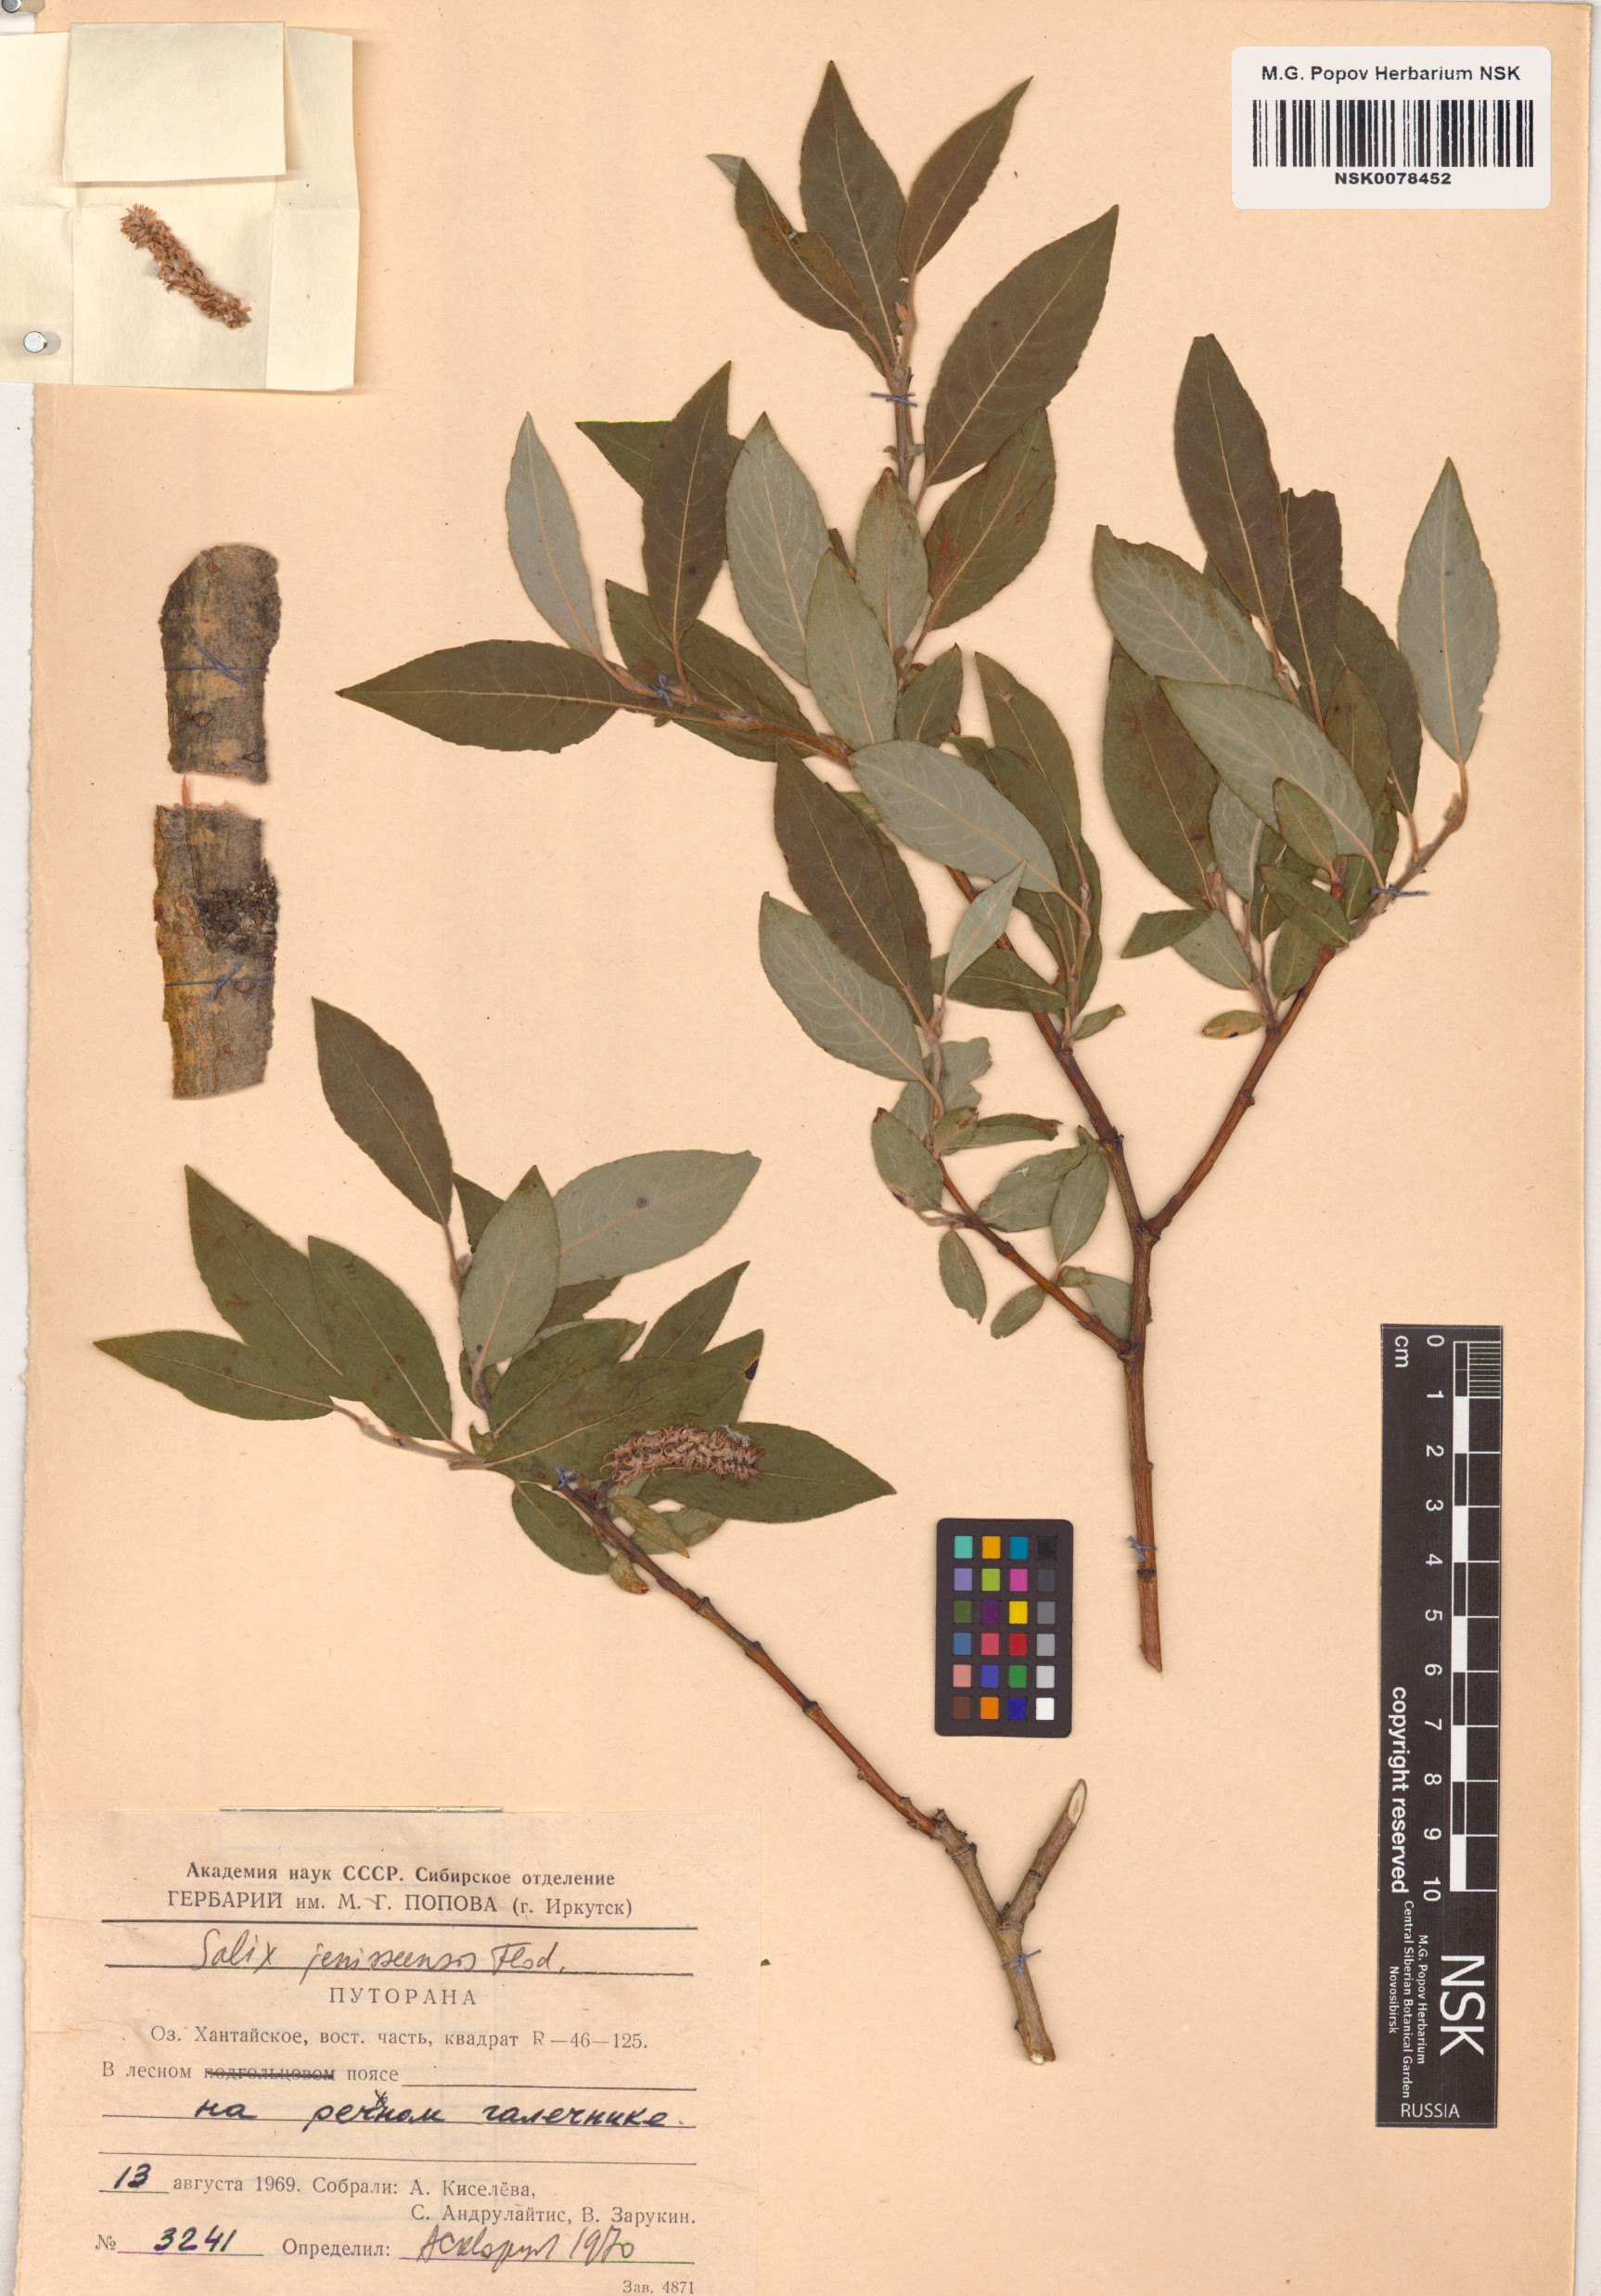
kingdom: Plantae
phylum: Tracheophyta
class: Magnoliopsida
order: Malpighiales
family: Salicaceae
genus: Salix
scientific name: Salix jenisseensis
